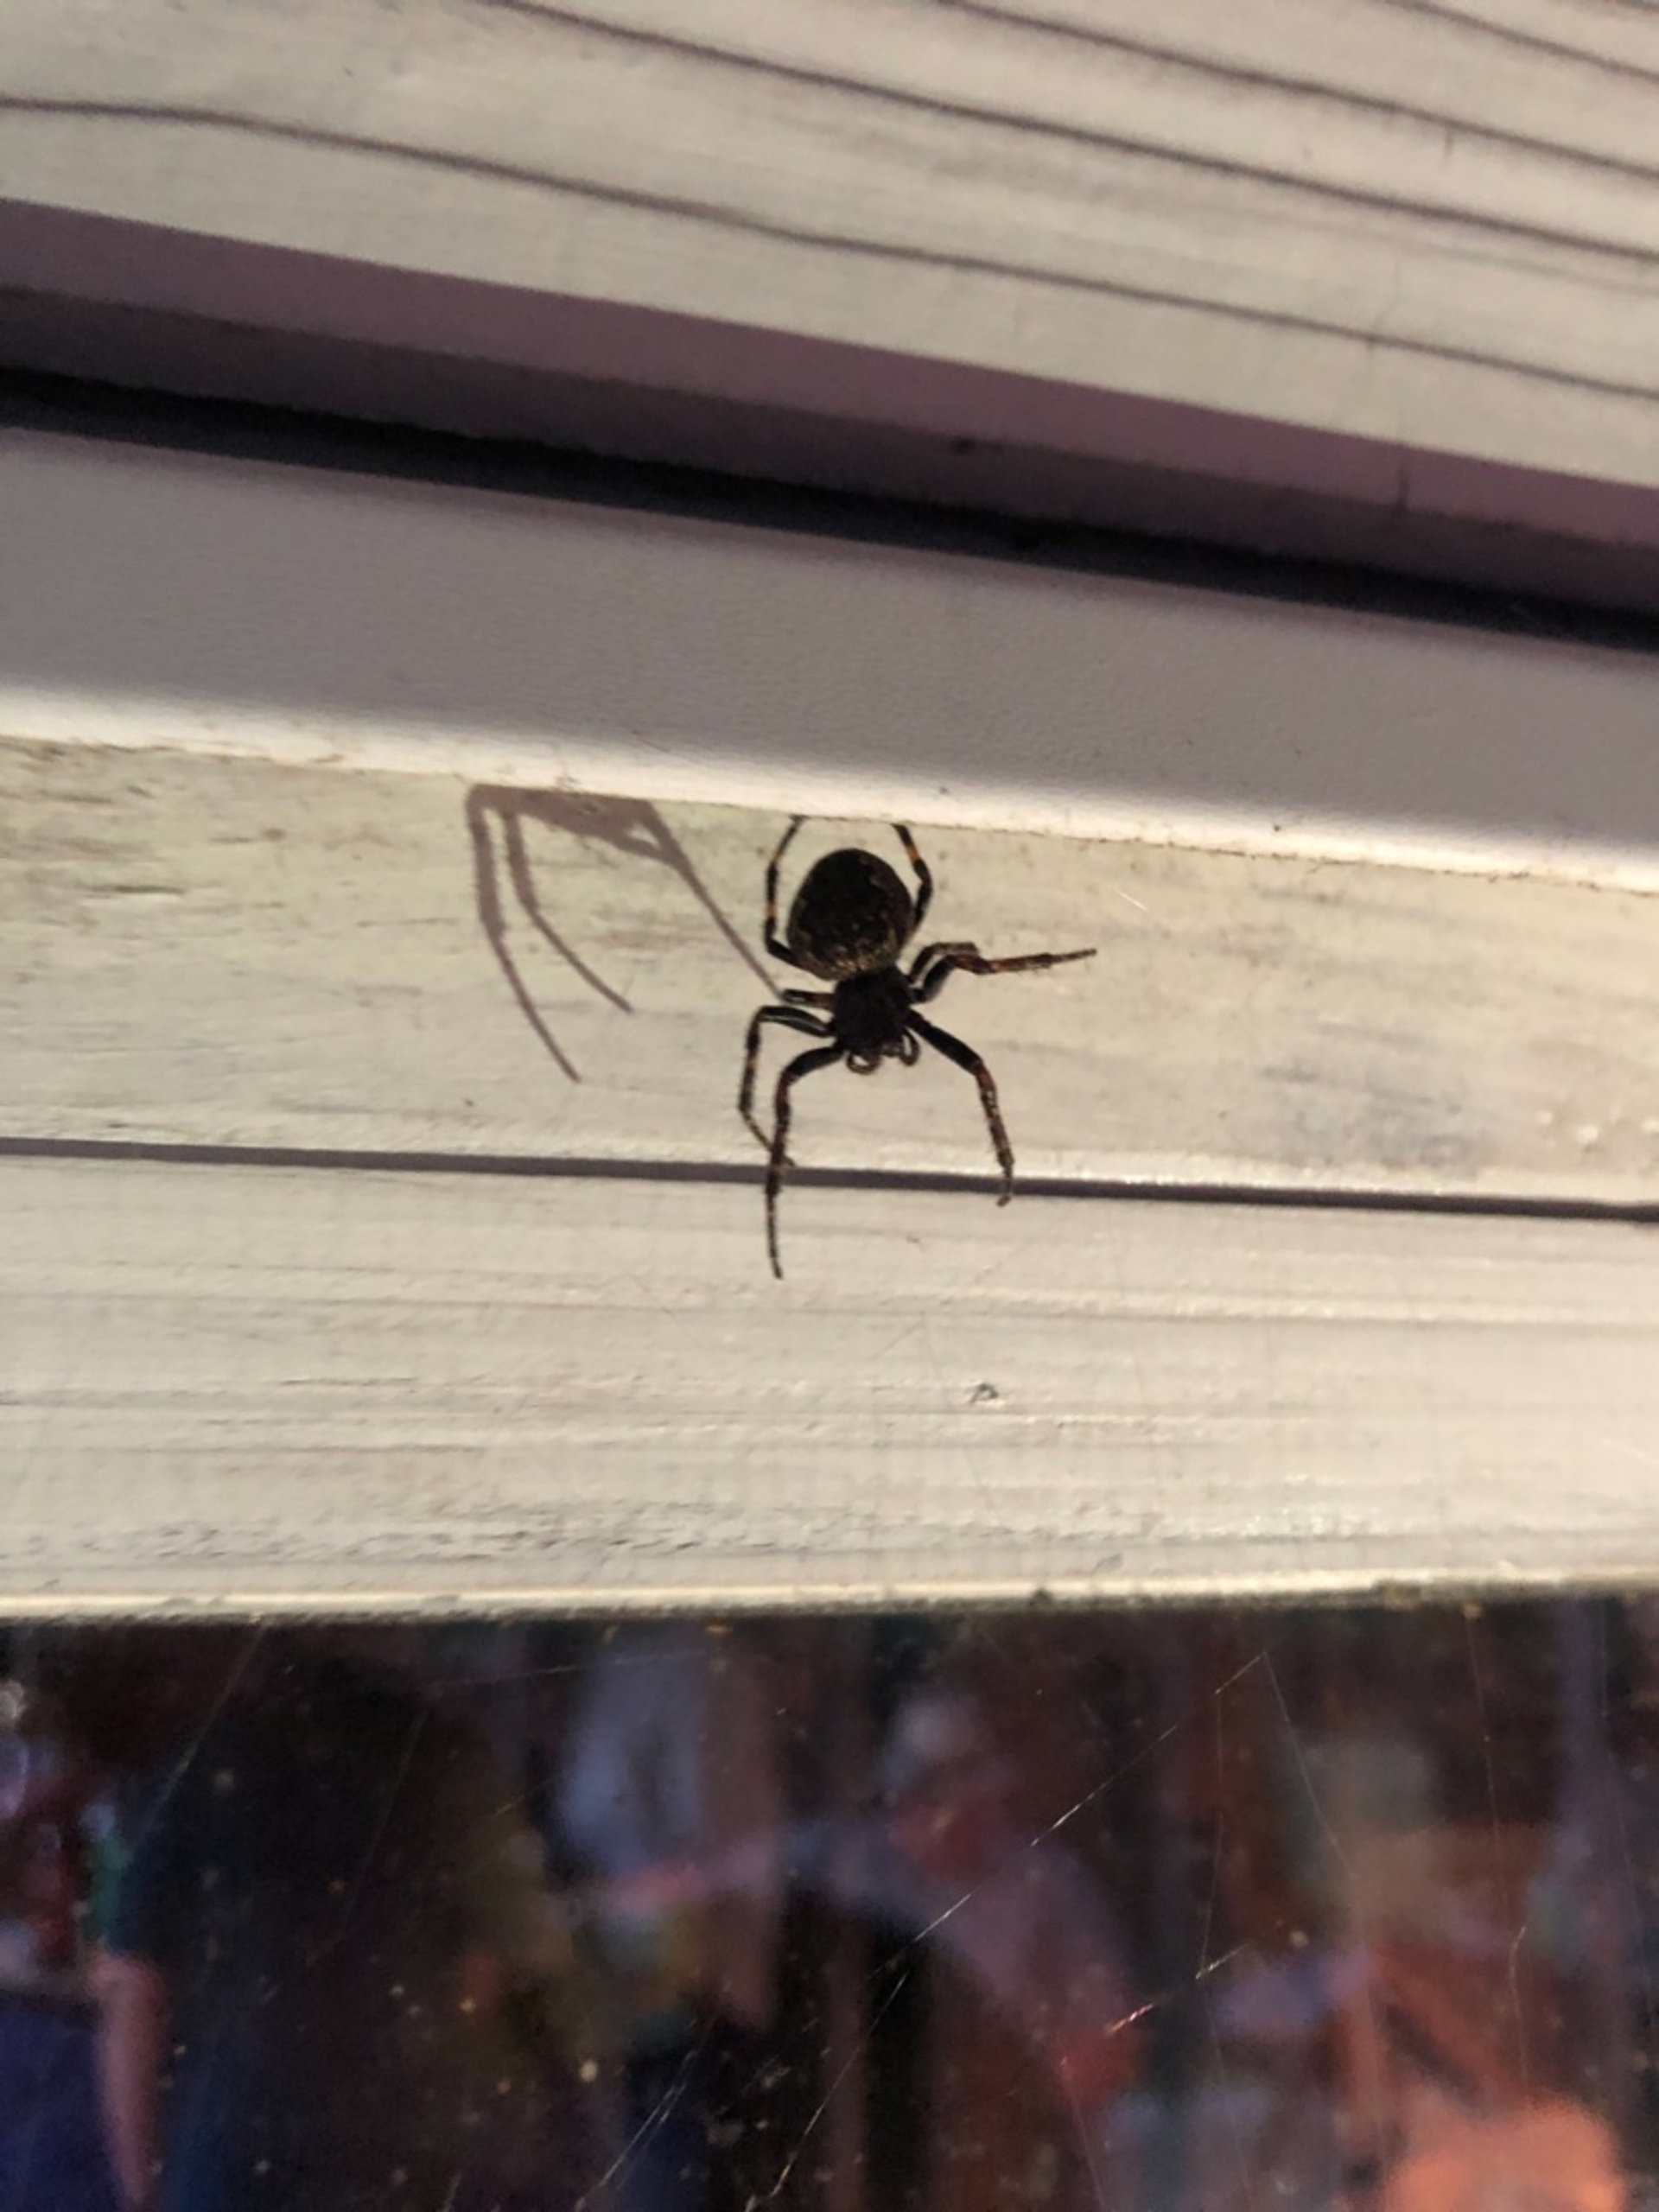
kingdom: Animalia
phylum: Arthropoda
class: Arachnida
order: Araneae
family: Araneidae
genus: Nuctenea
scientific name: Nuctenea umbratica
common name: Flad hjulspinder
